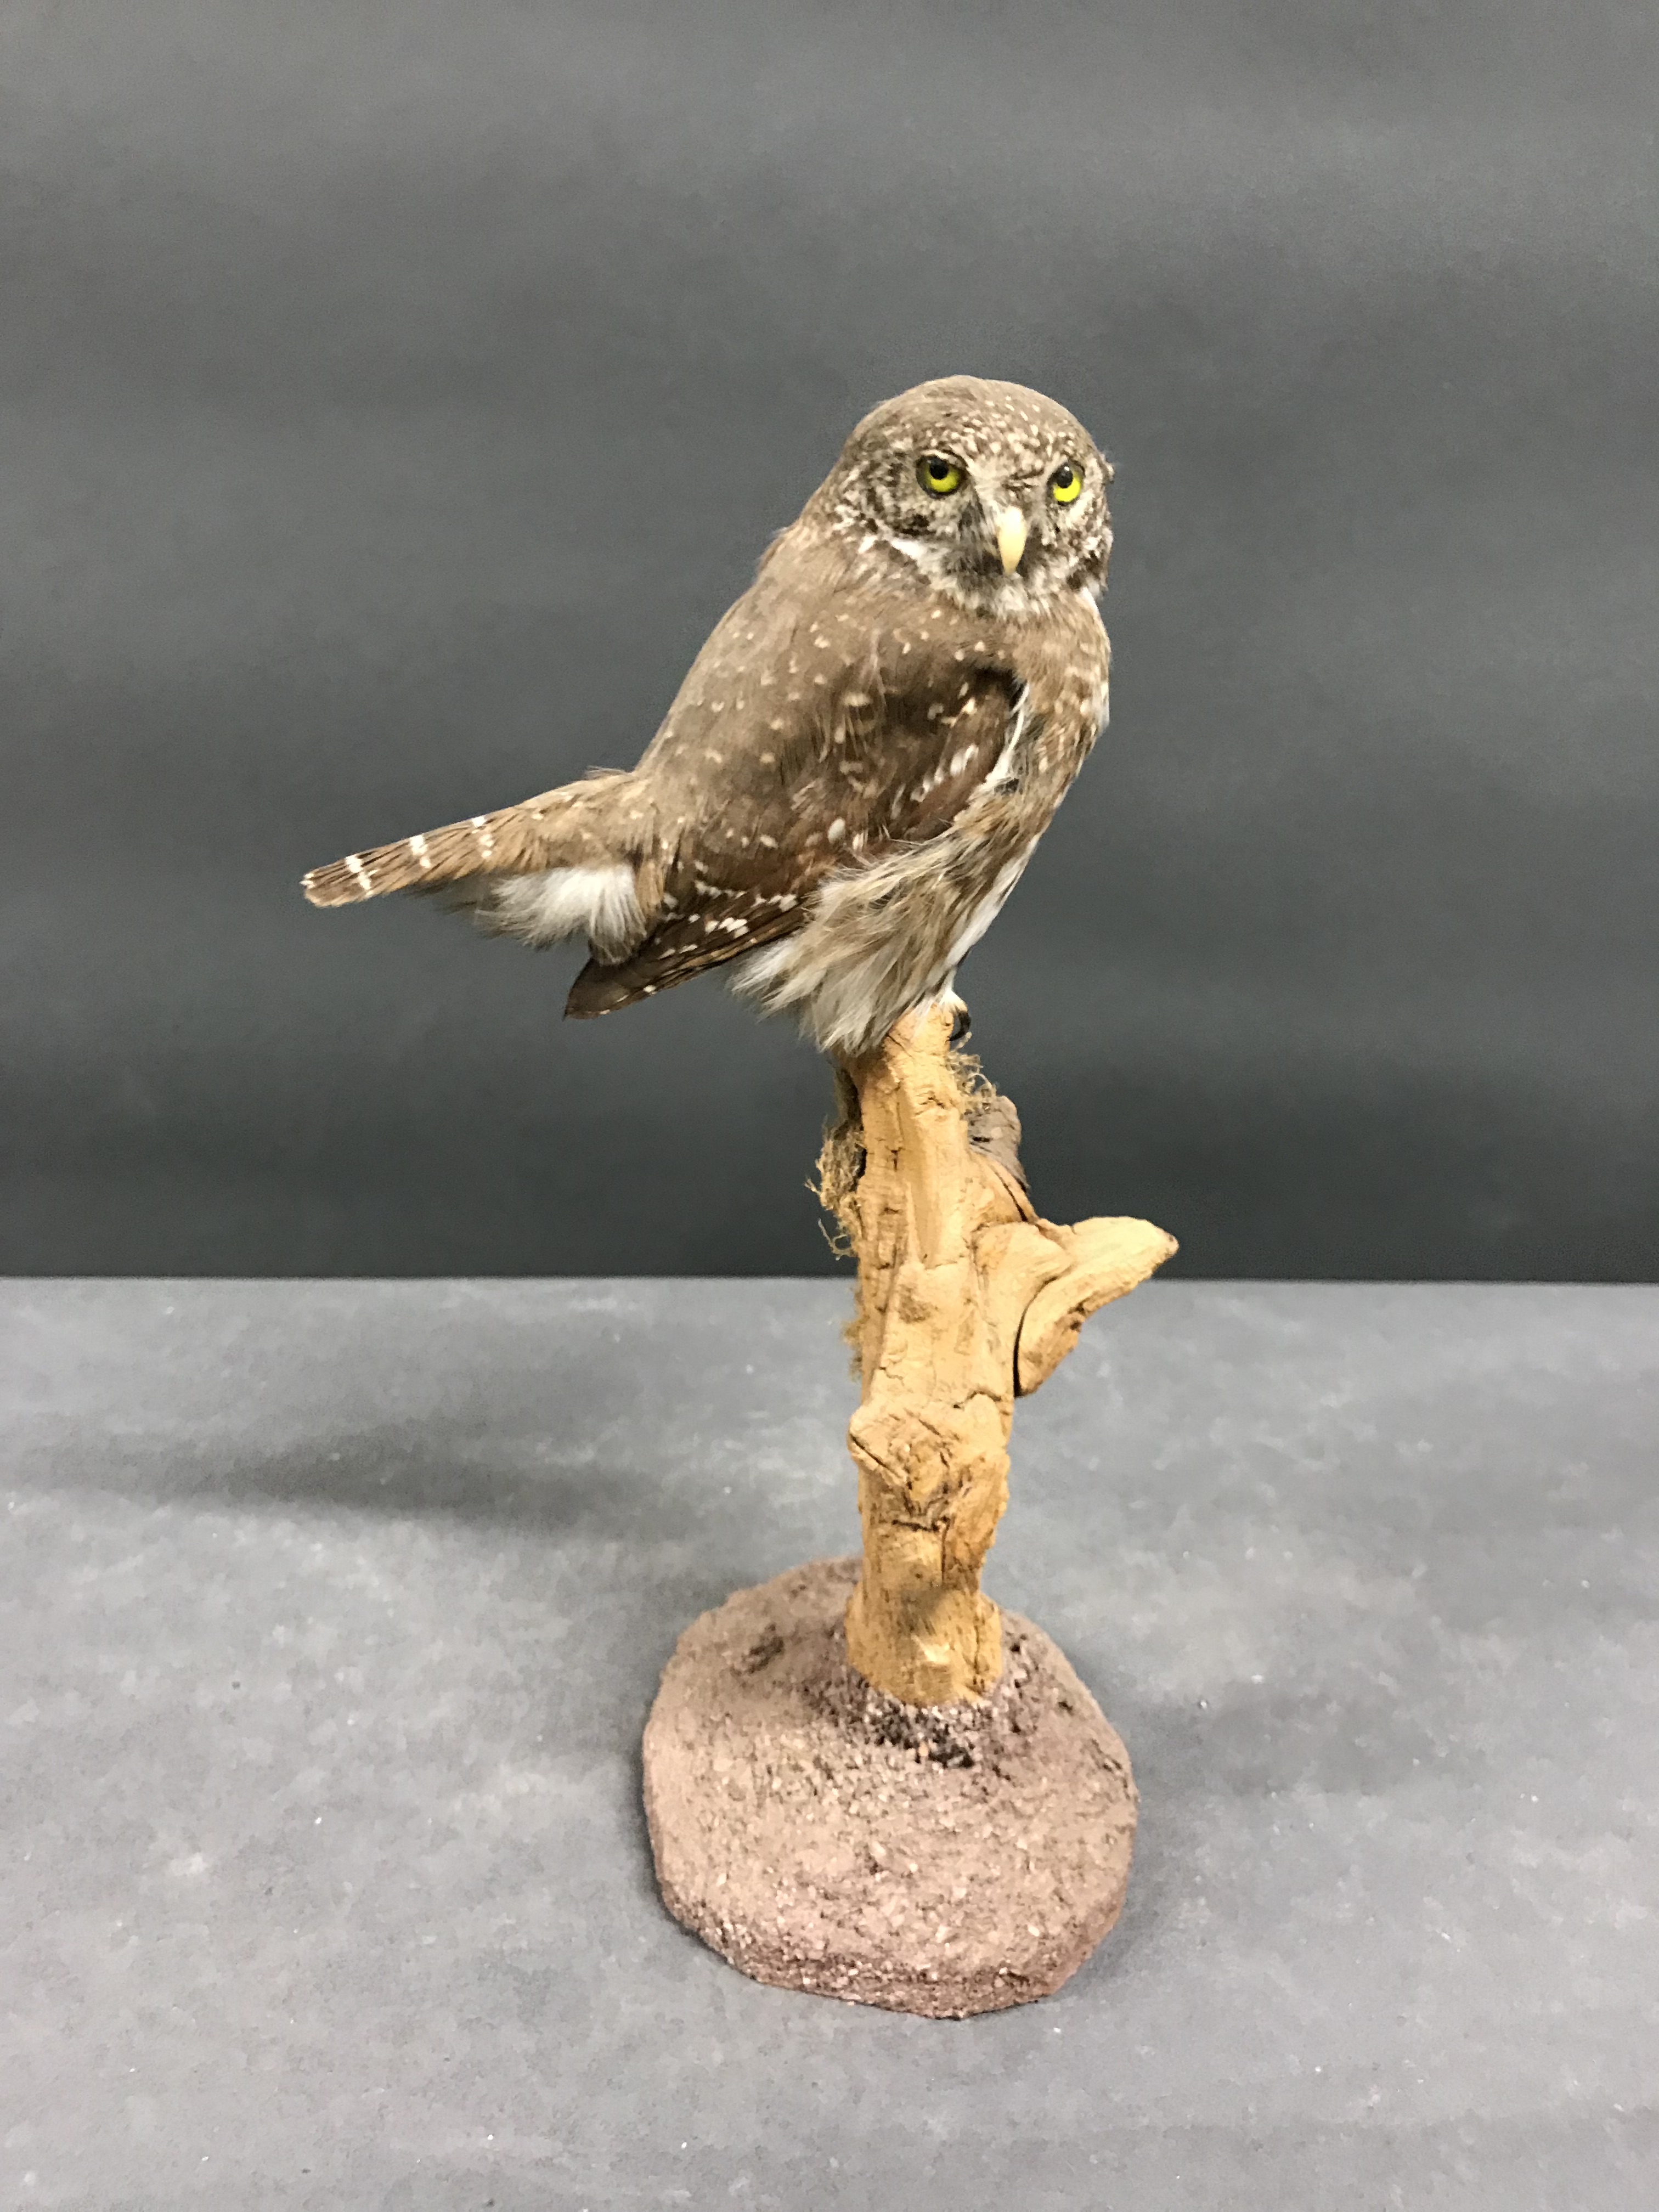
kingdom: Animalia
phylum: Chordata
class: Aves
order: Strigiformes
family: Strigidae
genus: Glaucidium
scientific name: Glaucidium passerinum
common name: Eurasian pygmy owl
